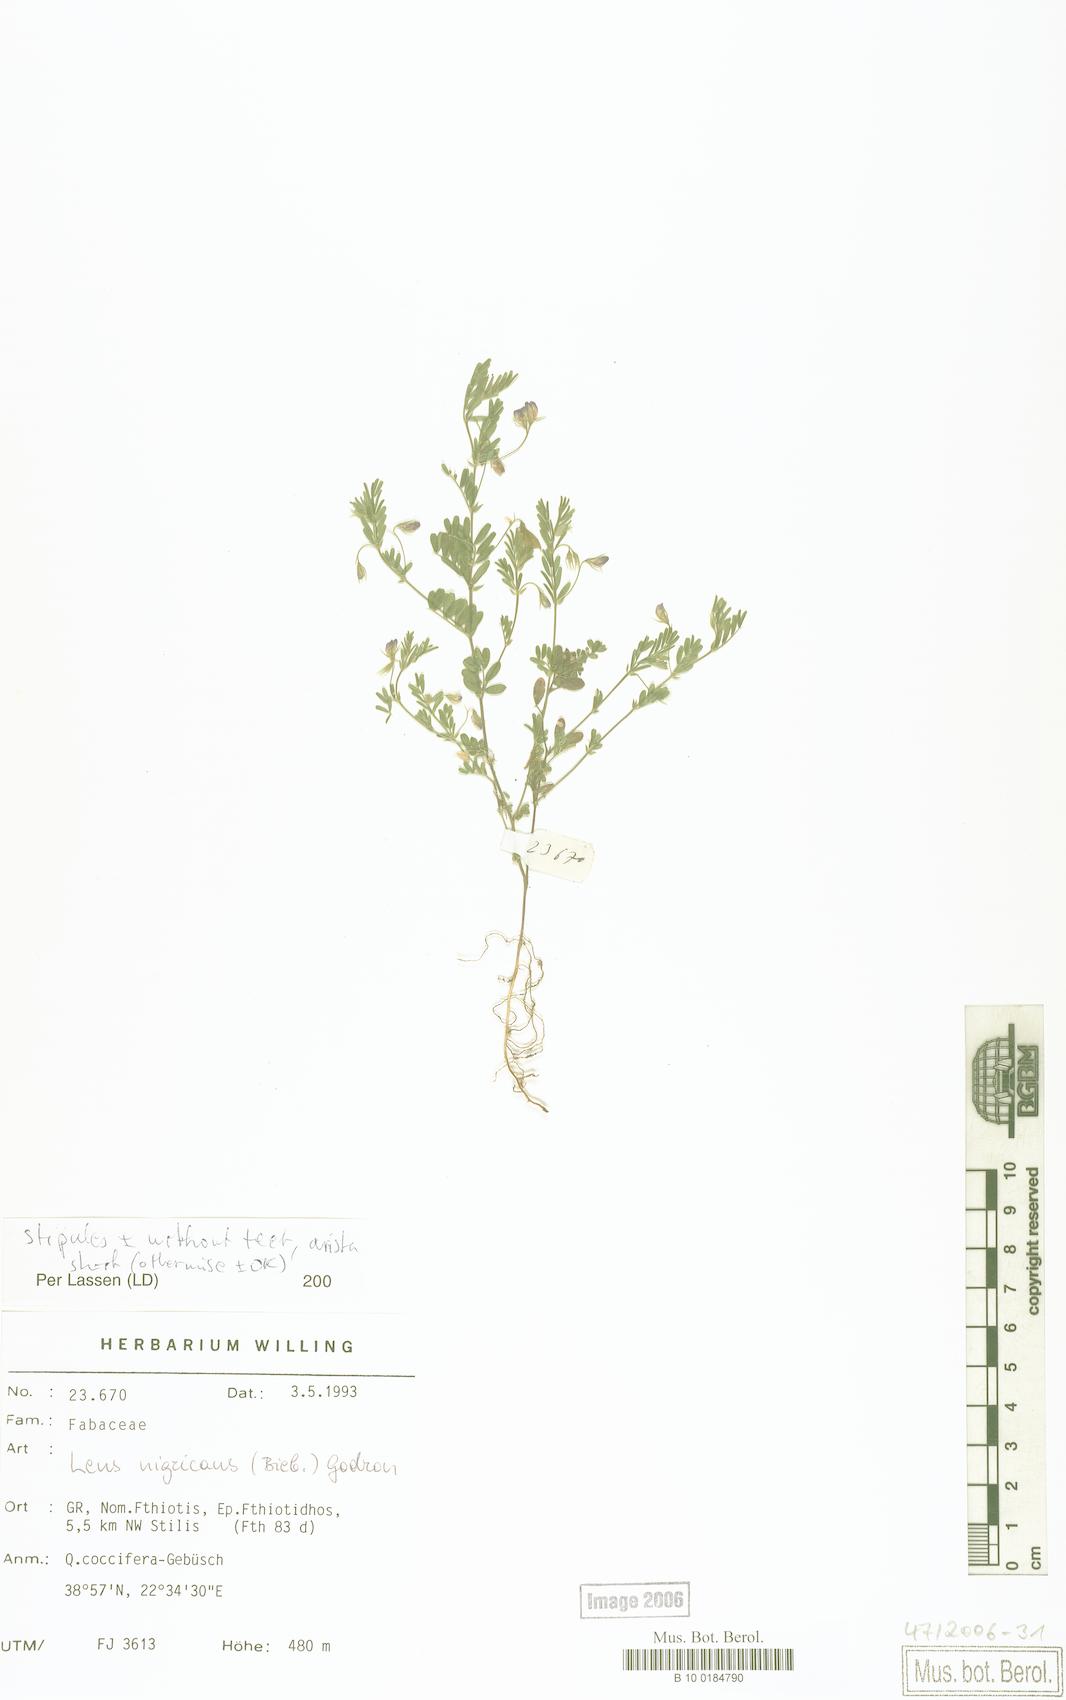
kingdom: Plantae
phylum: Tracheophyta
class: Magnoliopsida
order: Fabales
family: Fabaceae
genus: Vicia
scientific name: Vicia lentoides
